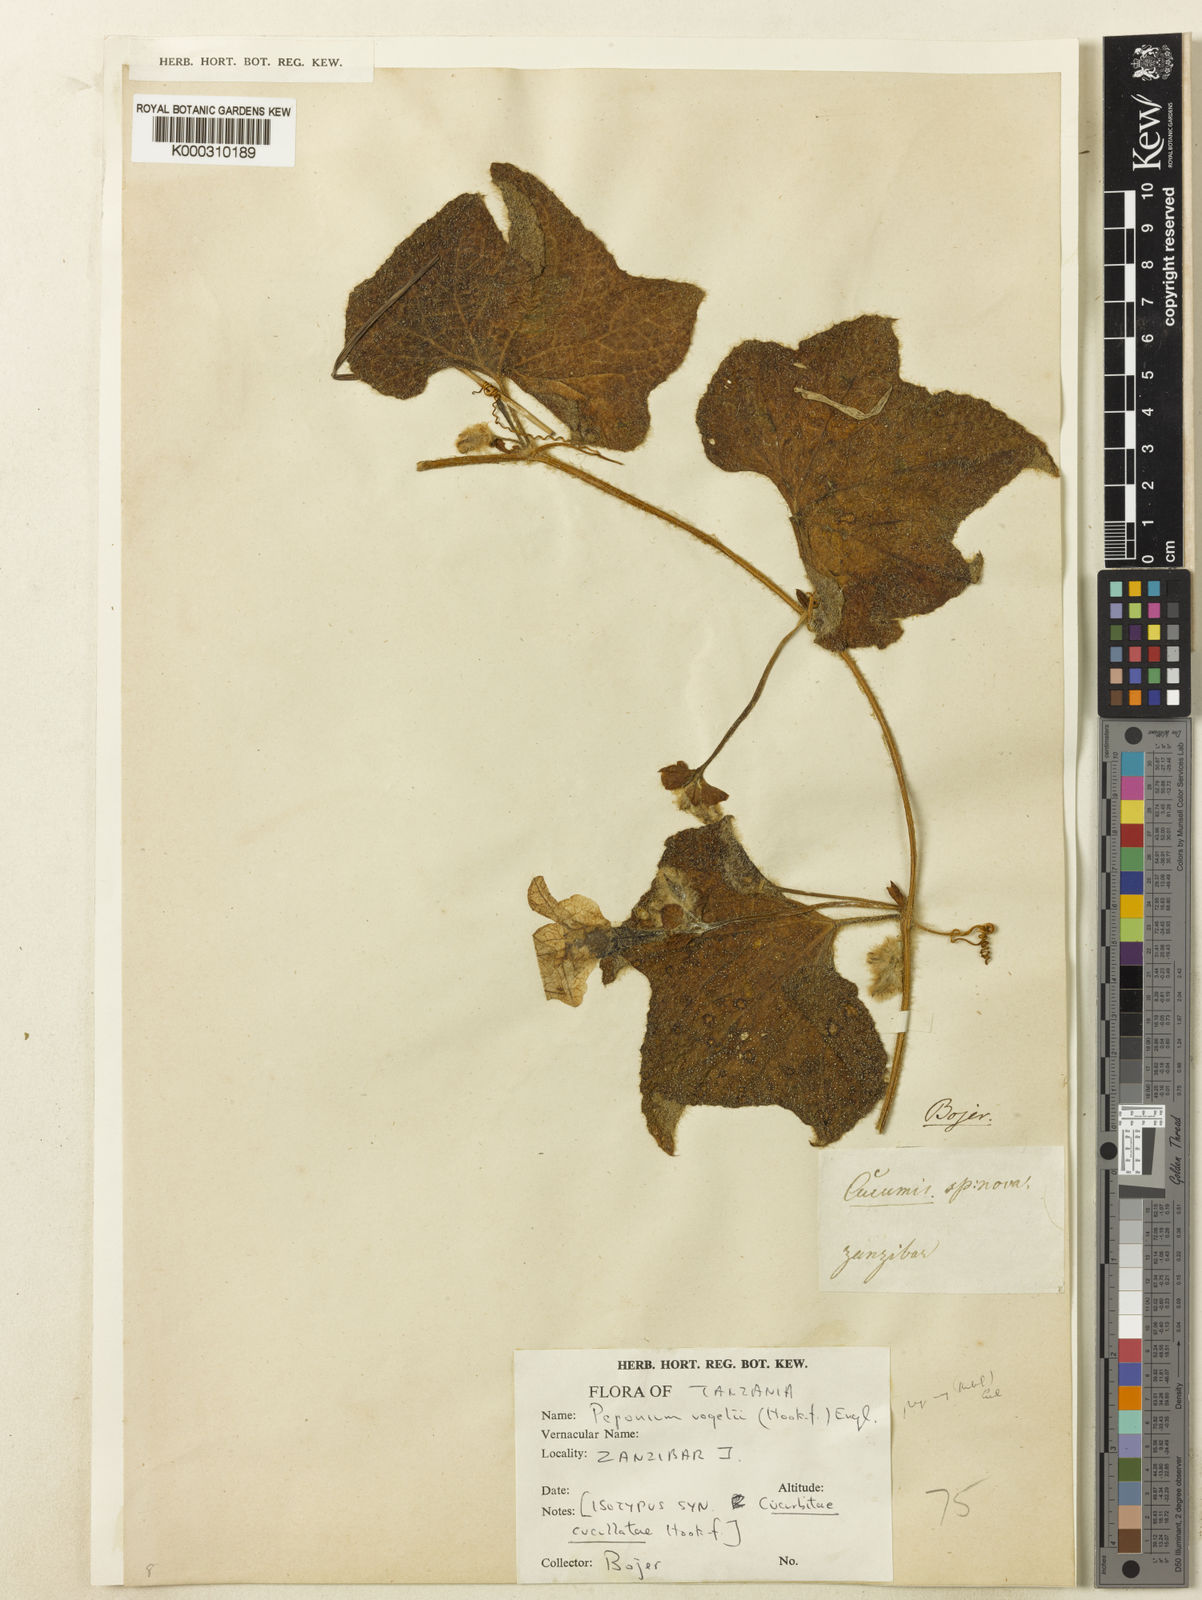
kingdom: Plantae
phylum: Tracheophyta
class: Magnoliopsida
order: Cucurbitales
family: Cucurbitaceae
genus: Peponium
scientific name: Peponium vogelii
